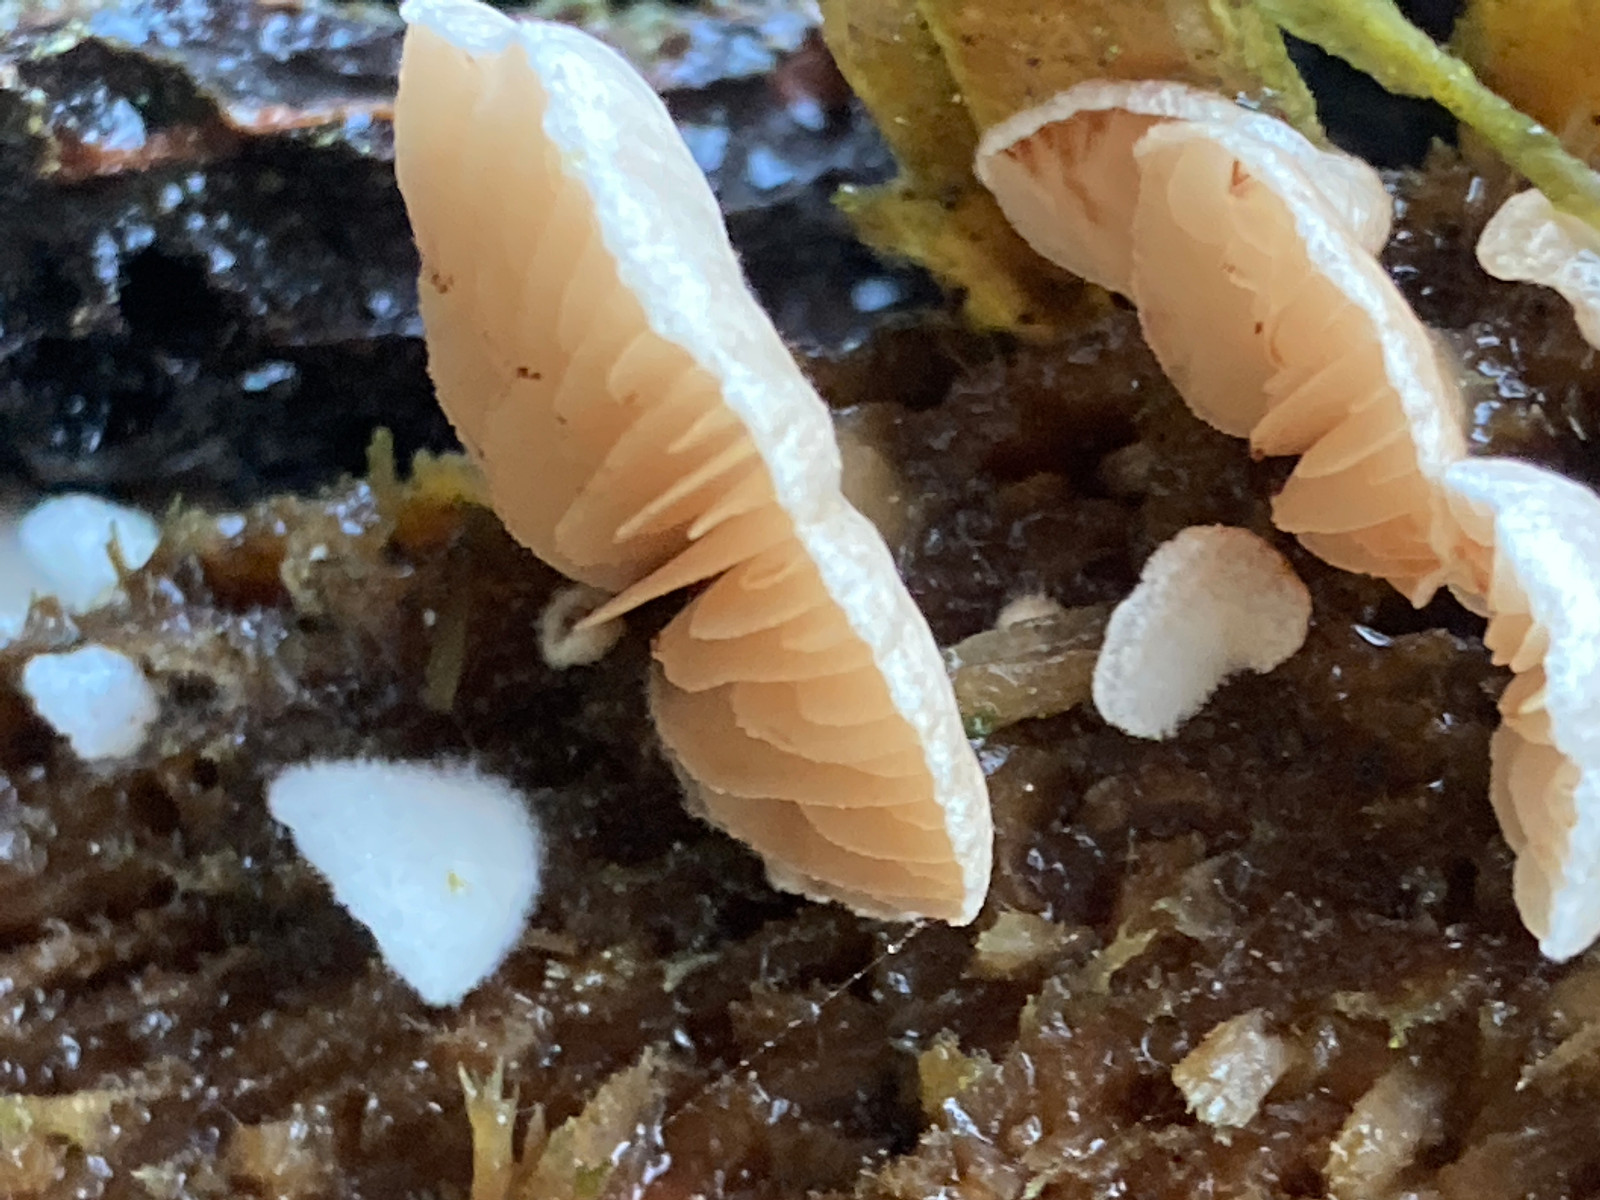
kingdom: Fungi
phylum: Basidiomycota
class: Agaricomycetes
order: Agaricales
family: Mycenaceae
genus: Panellus
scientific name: Panellus mitis
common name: mild epaulethat
